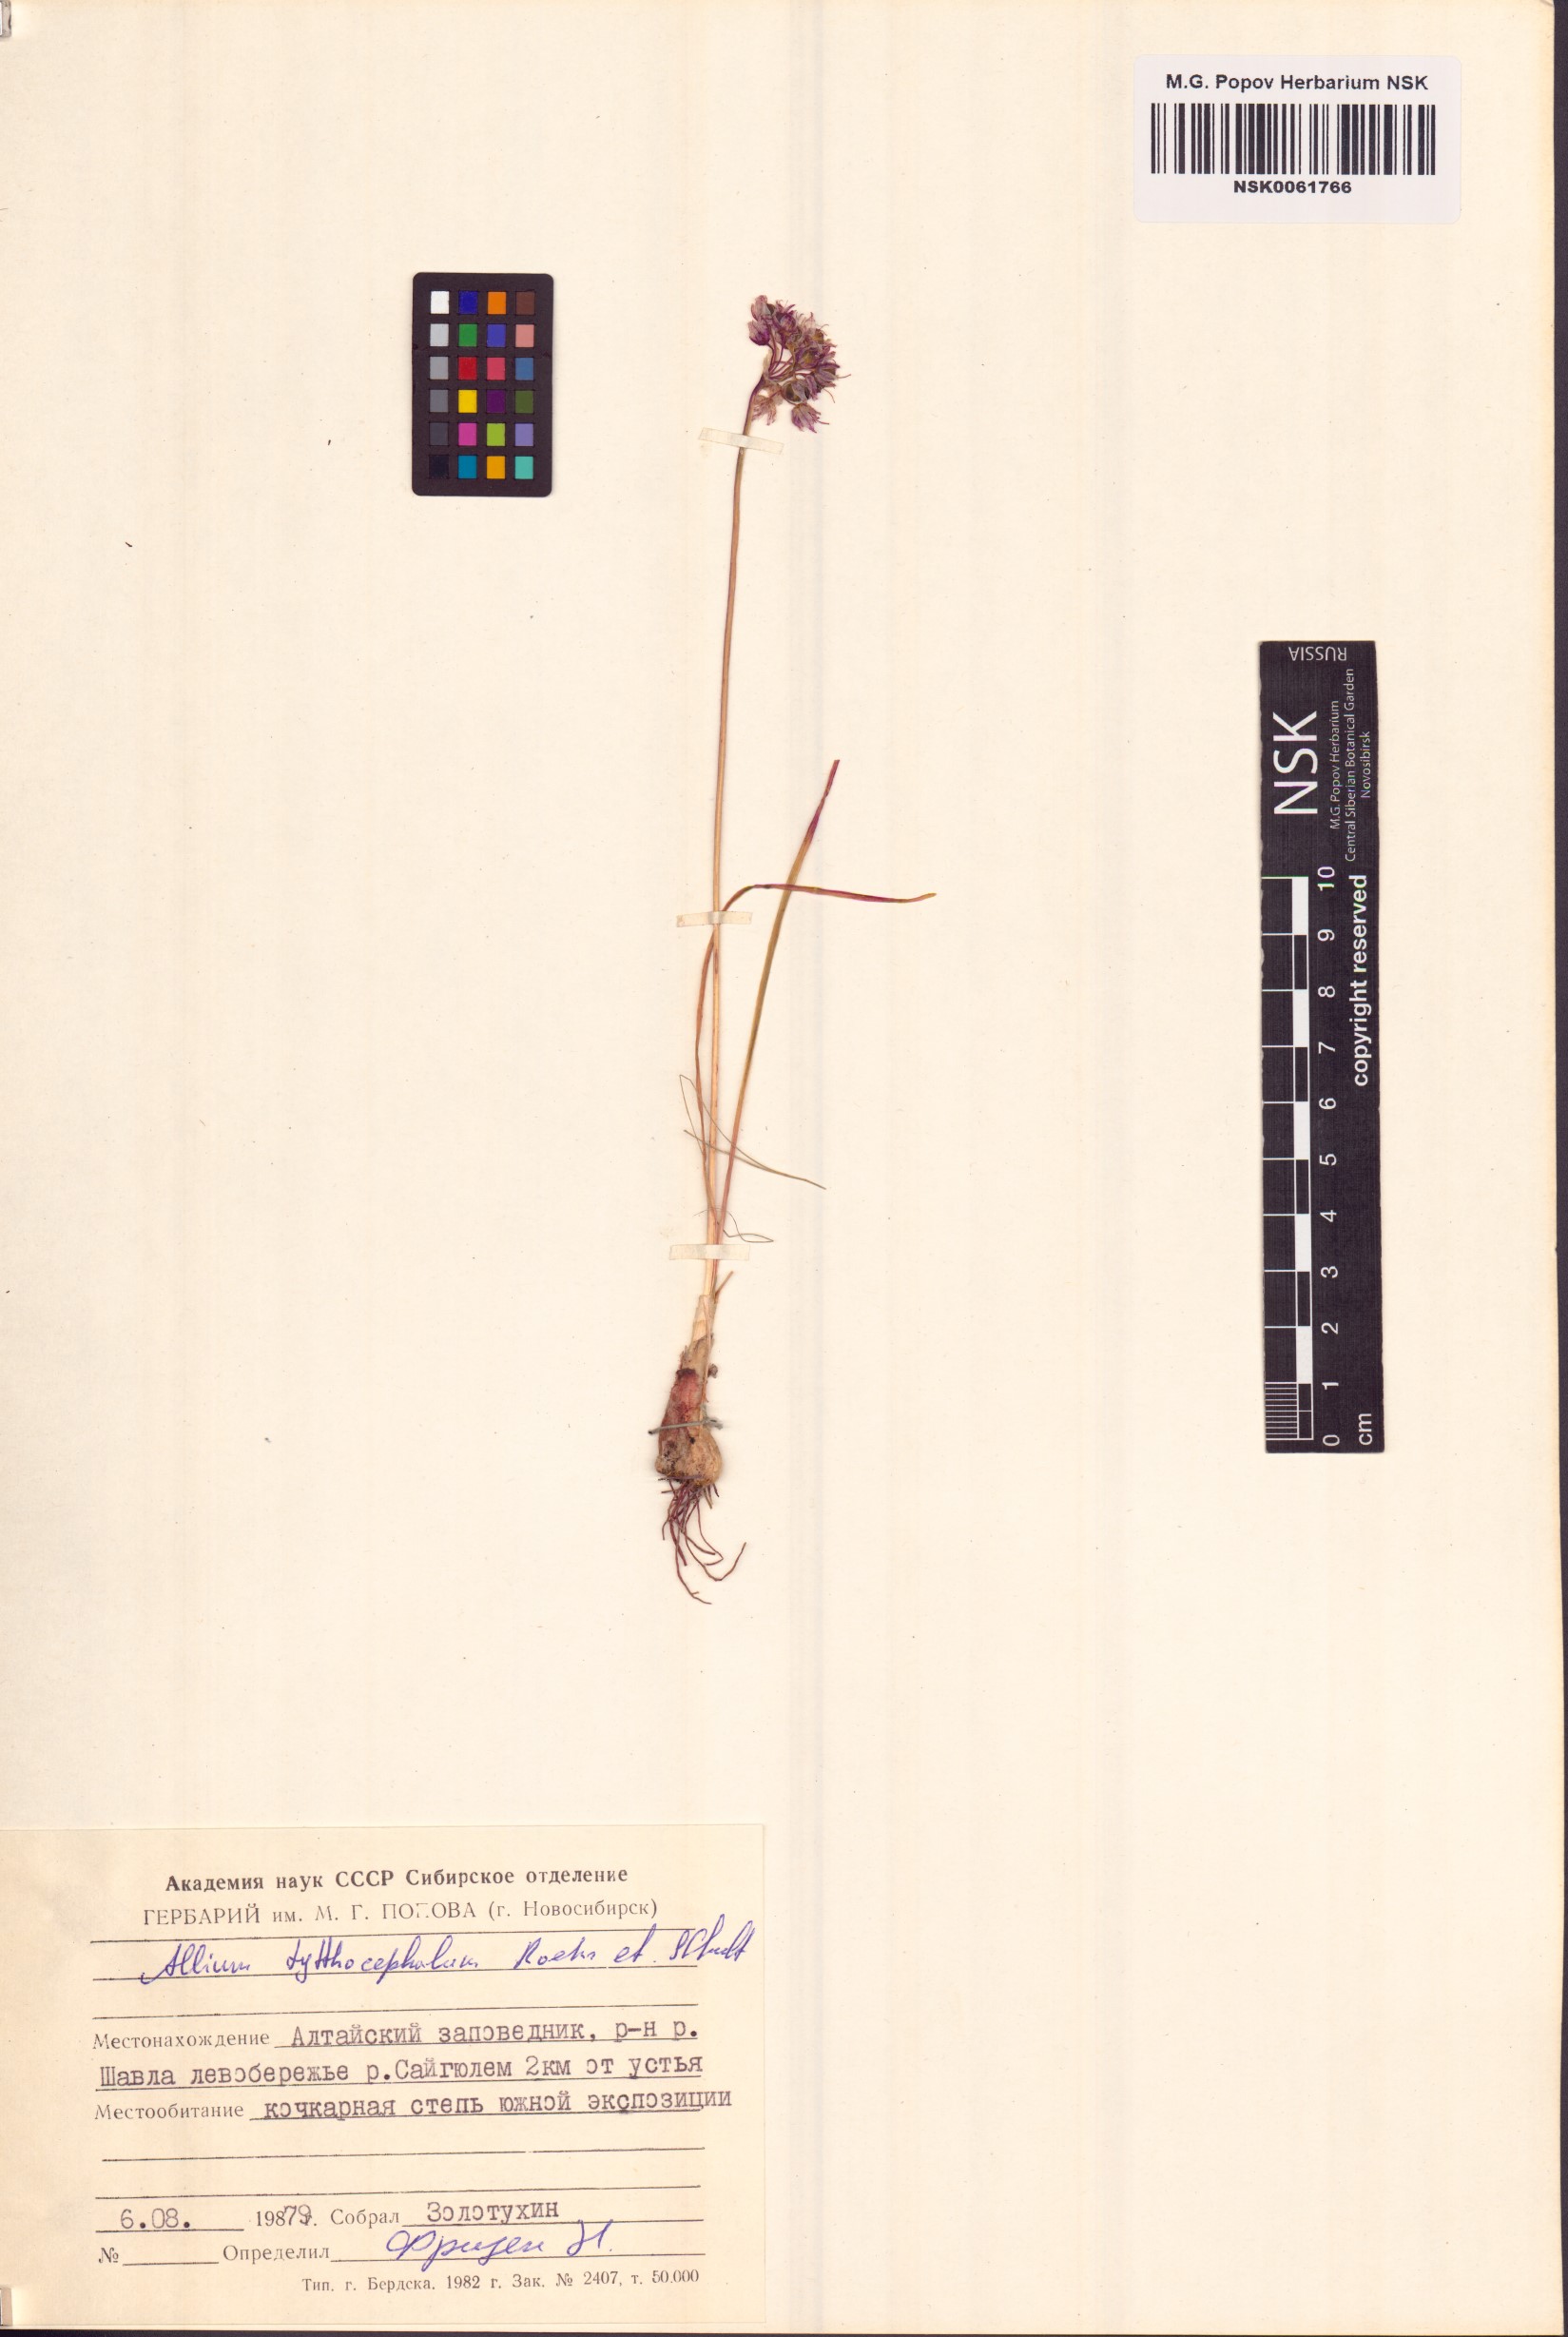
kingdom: Plantae
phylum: Tracheophyta
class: Liliopsida
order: Asparagales
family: Amaryllidaceae
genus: Allium
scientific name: Allium tytthocephalum
